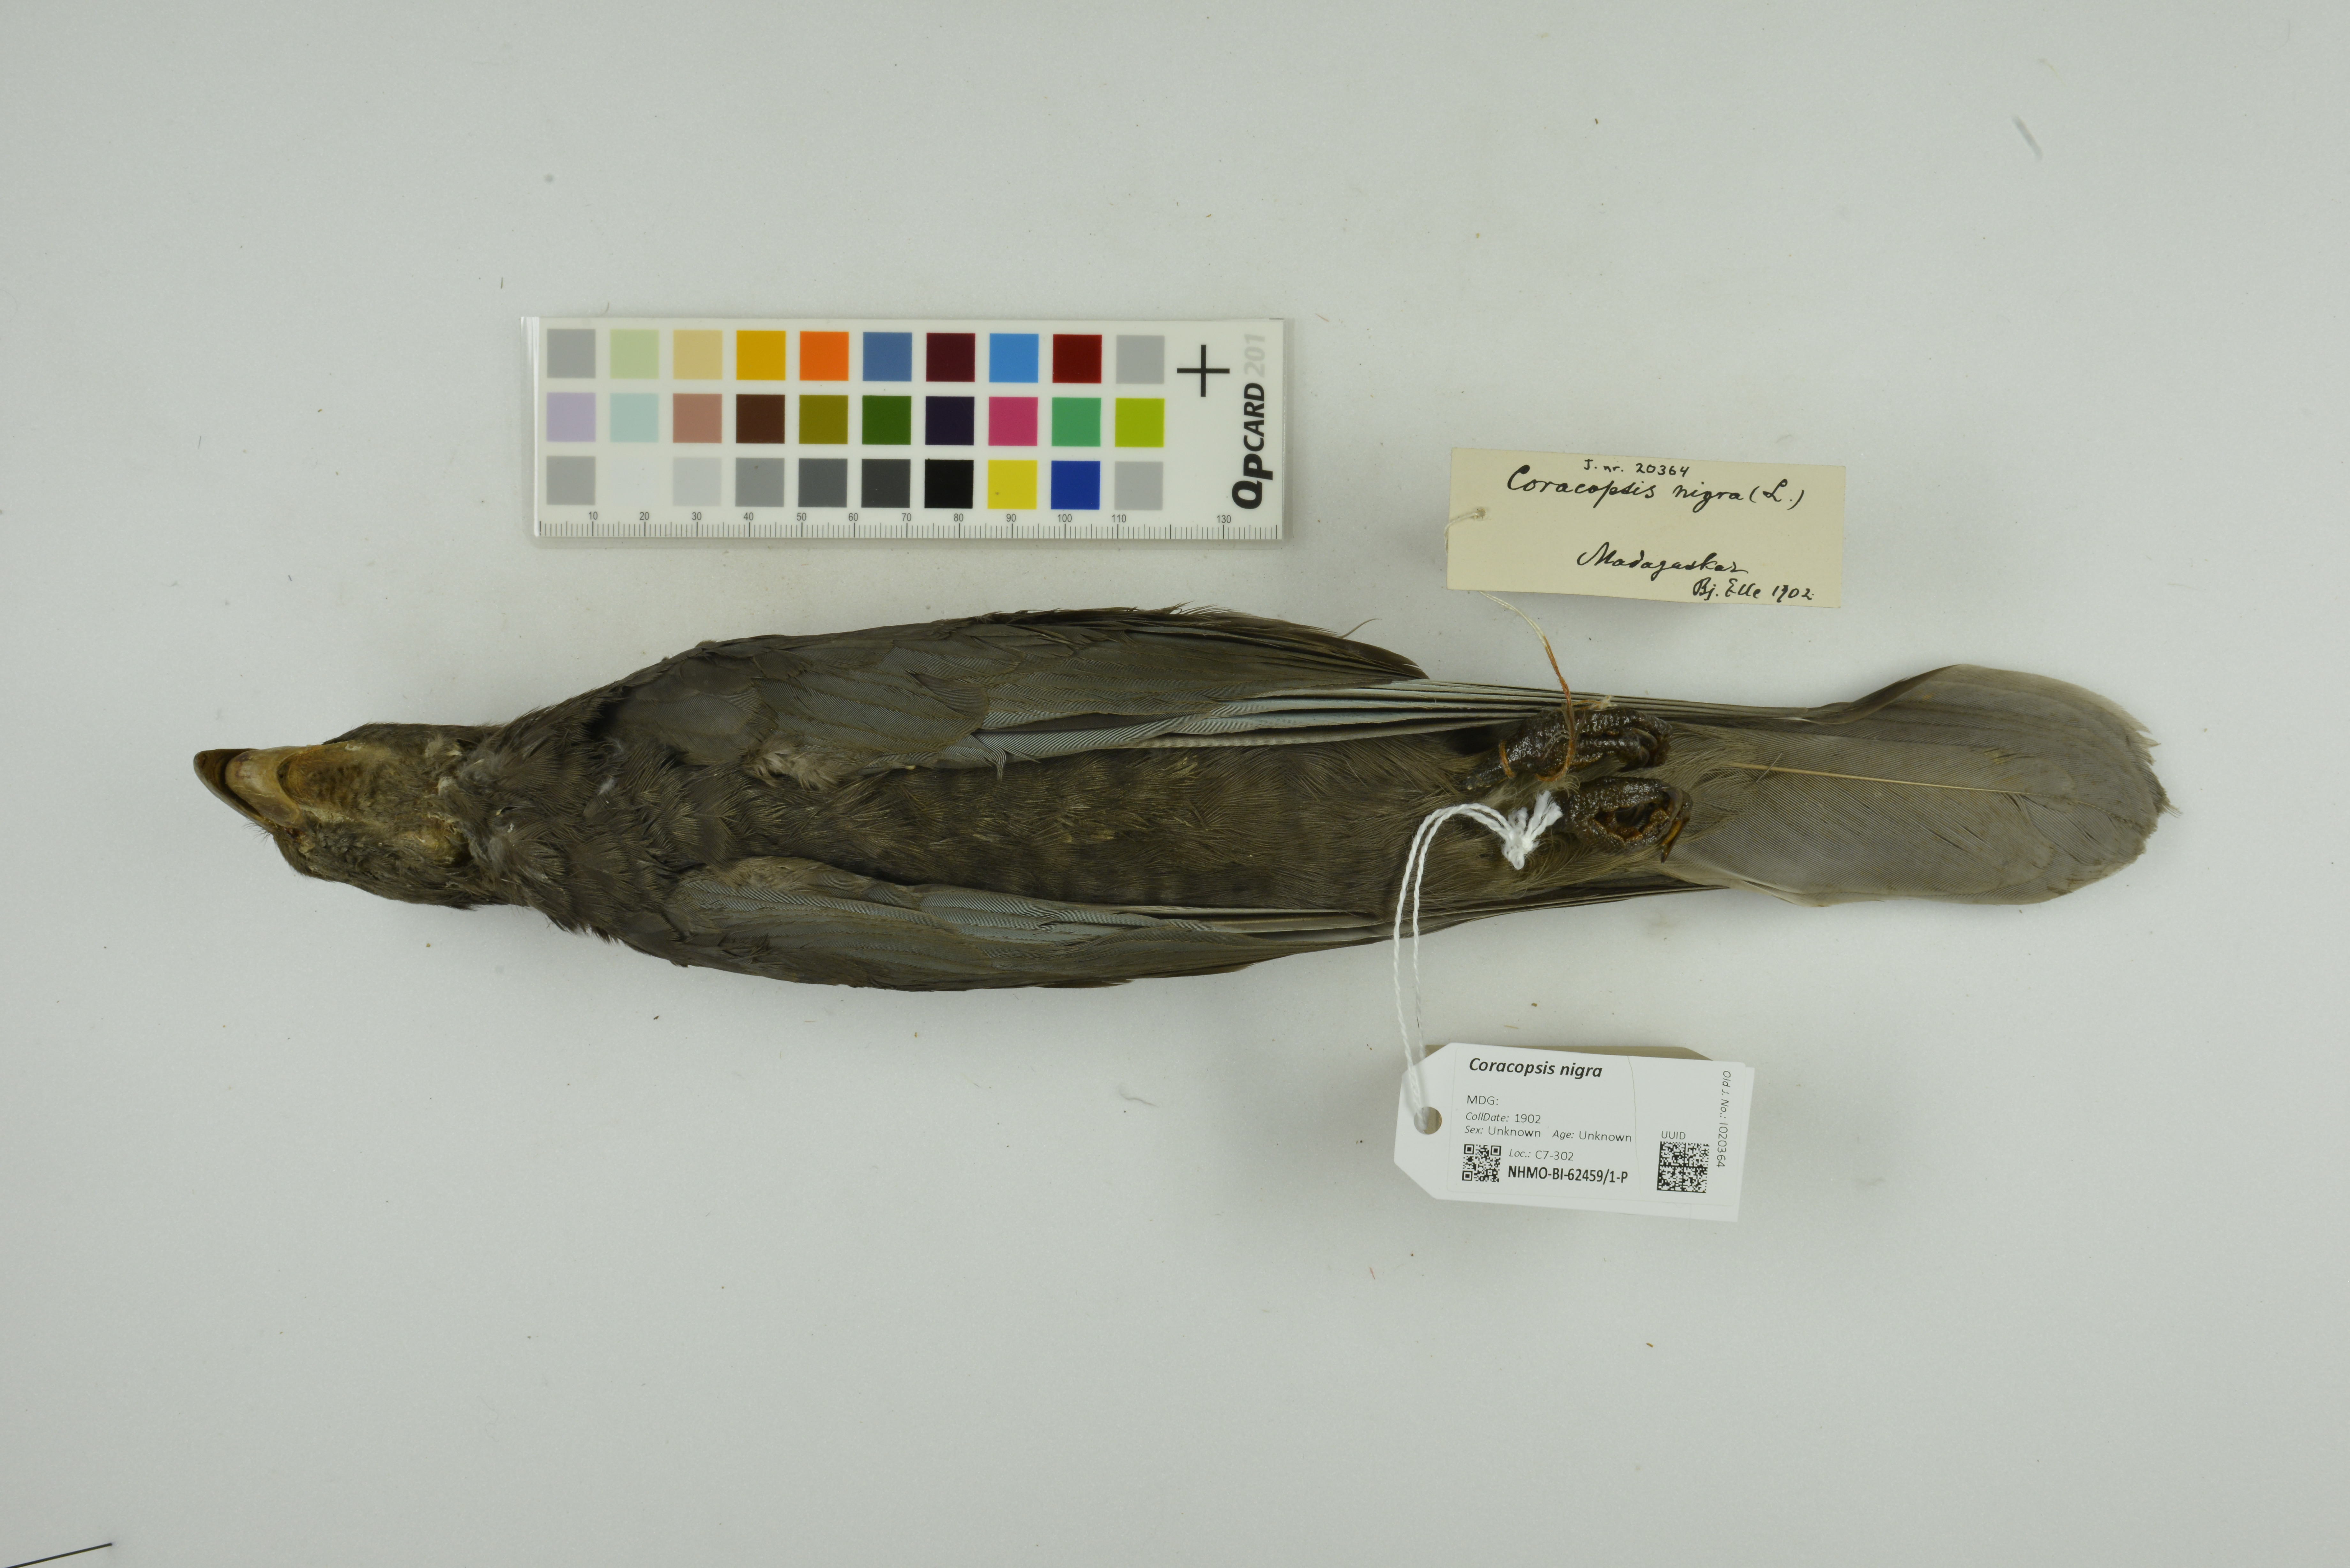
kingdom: Animalia
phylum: Chordata
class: Aves
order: Psittaciformes
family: Psittacidae
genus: Coracopsis
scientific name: Coracopsis nigra
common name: Lesser vasa parrot
